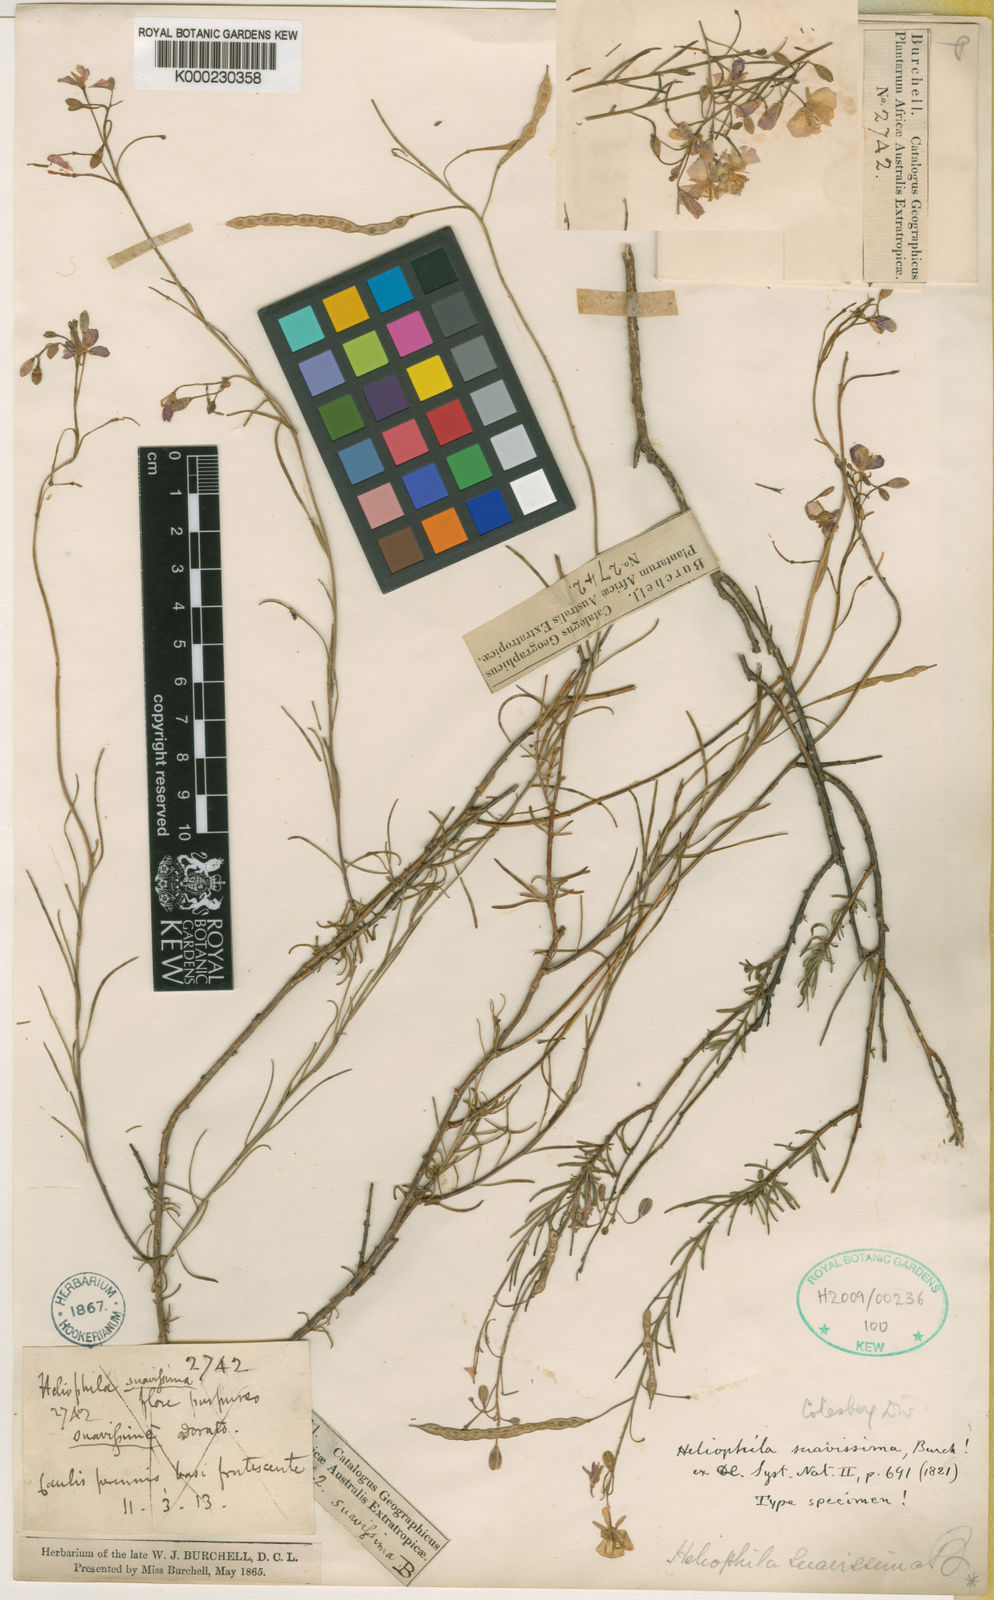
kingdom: Plantae
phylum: Tracheophyta
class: Magnoliopsida
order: Brassicales
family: Brassicaceae
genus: Heliophila
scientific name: Heliophila suavissima
